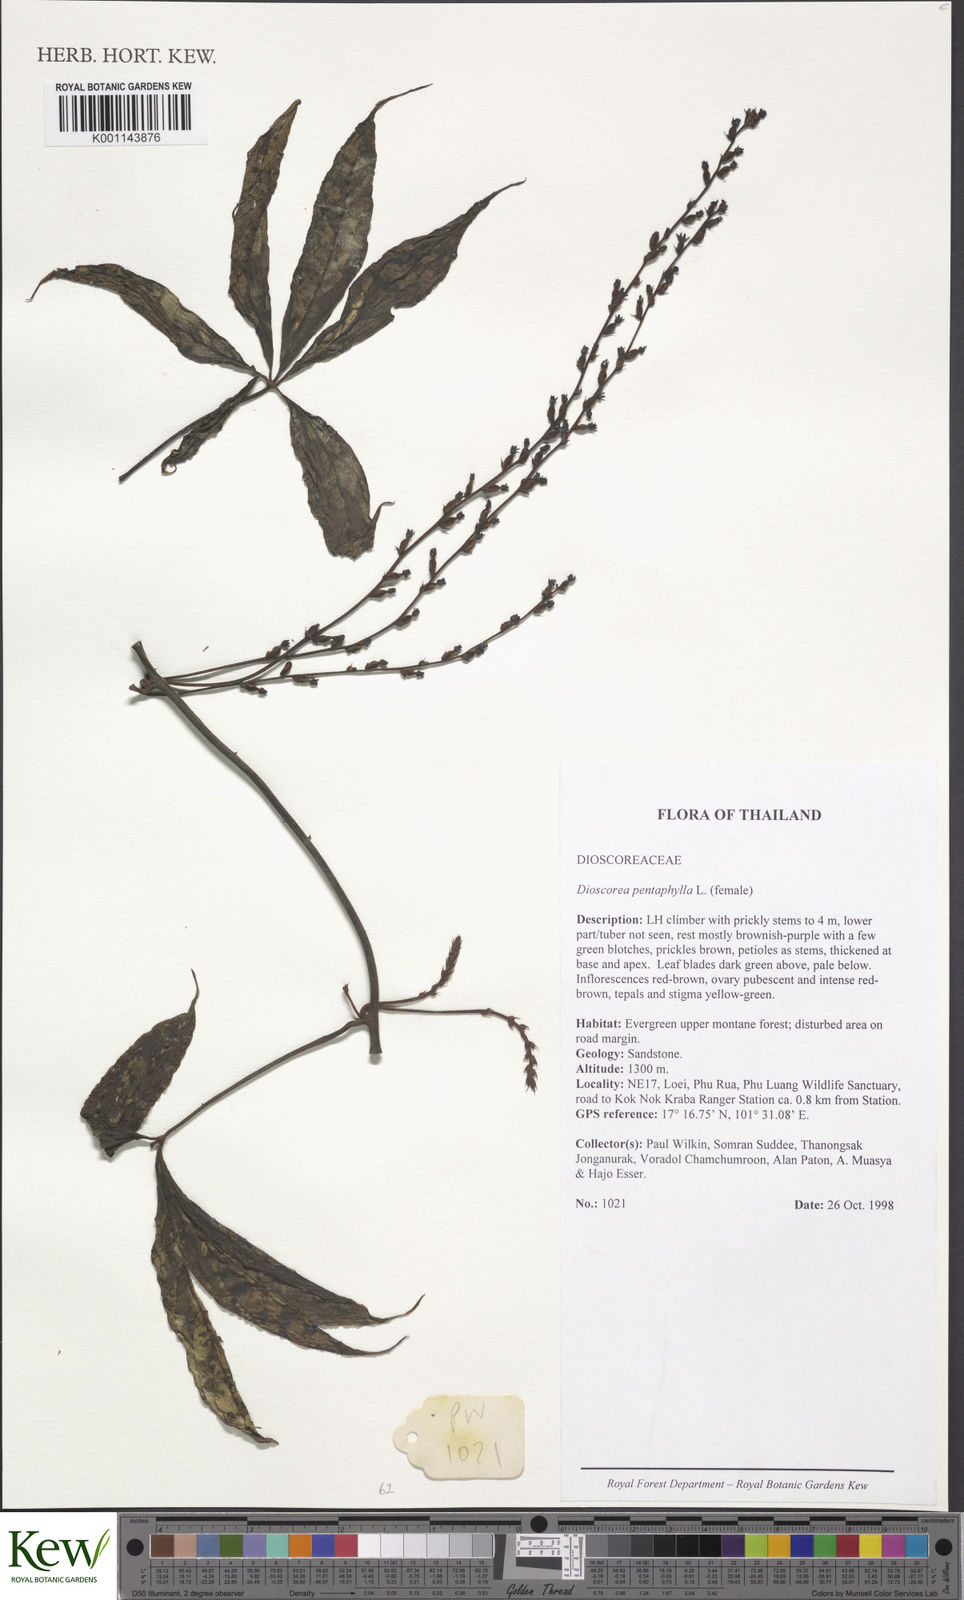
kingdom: Plantae
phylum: Tracheophyta
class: Liliopsida
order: Dioscoreales
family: Dioscoreaceae
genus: Dioscorea
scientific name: Dioscorea pentaphylla
